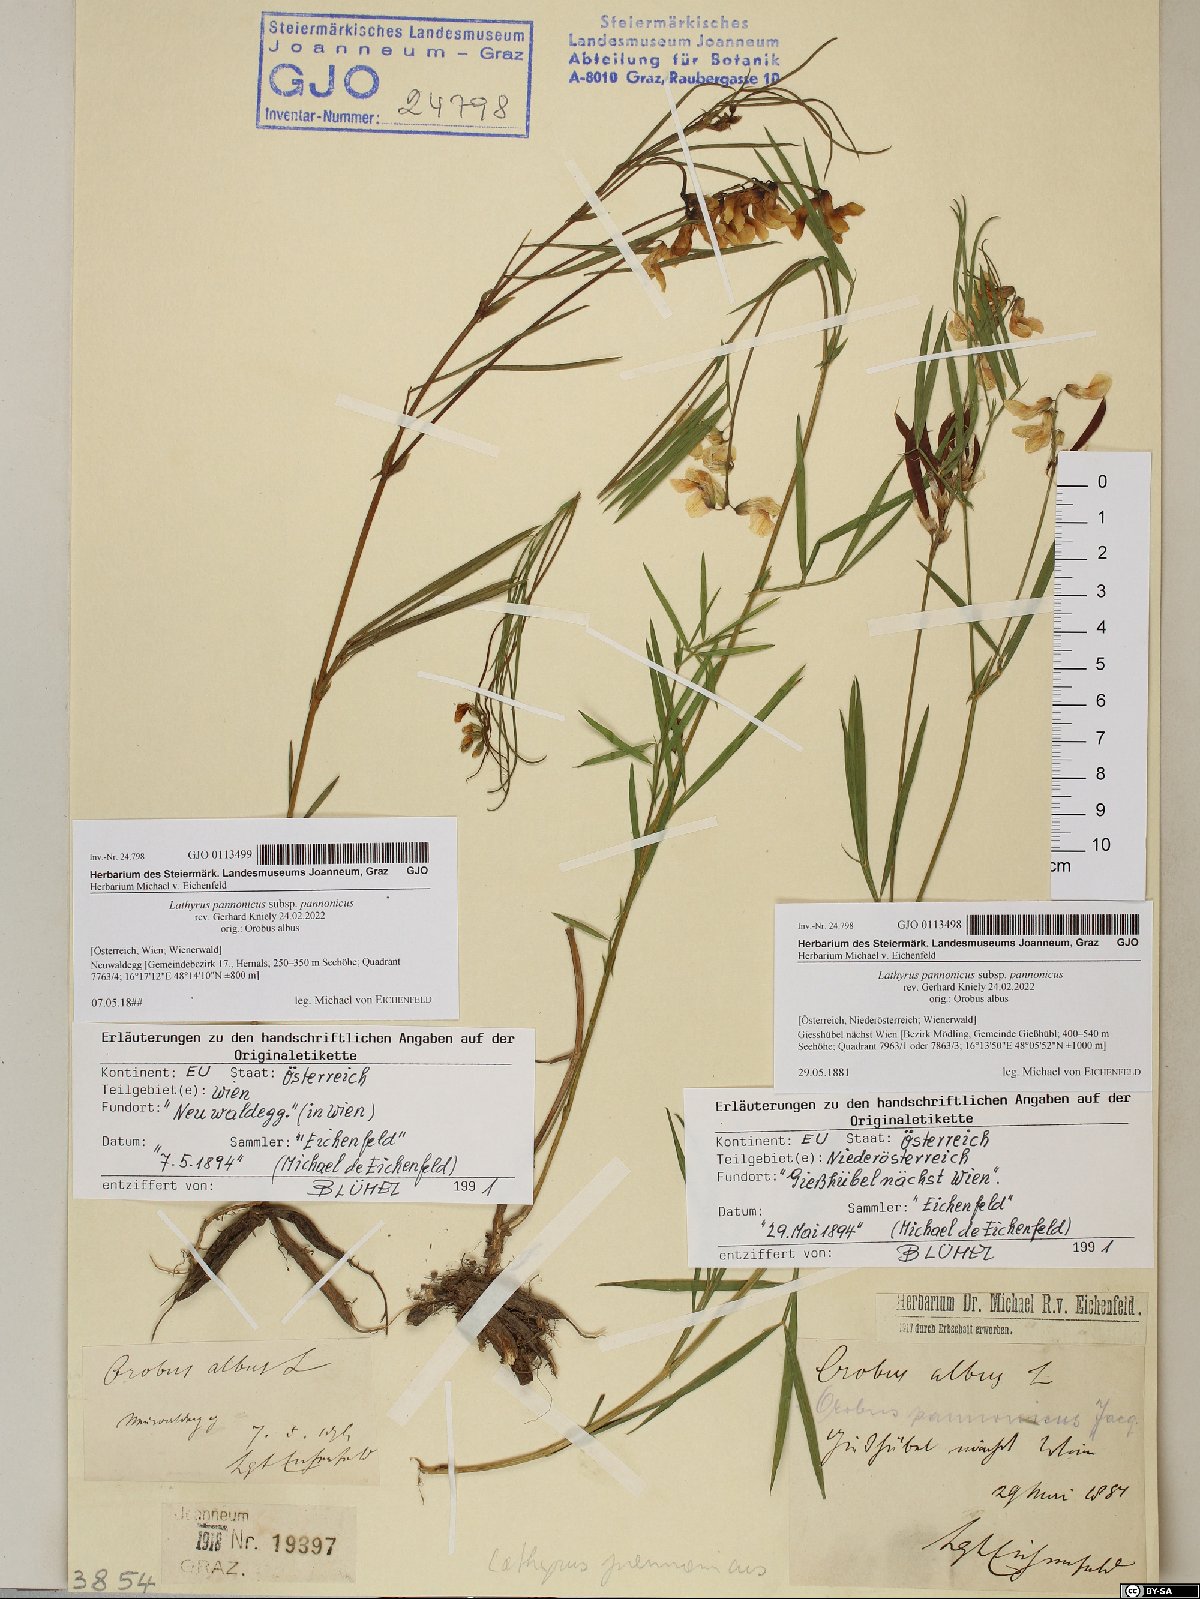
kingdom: Plantae
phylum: Tracheophyta
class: Magnoliopsida
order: Fabales
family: Fabaceae
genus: Lathyrus
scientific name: Lathyrus pannonicus
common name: Pea
